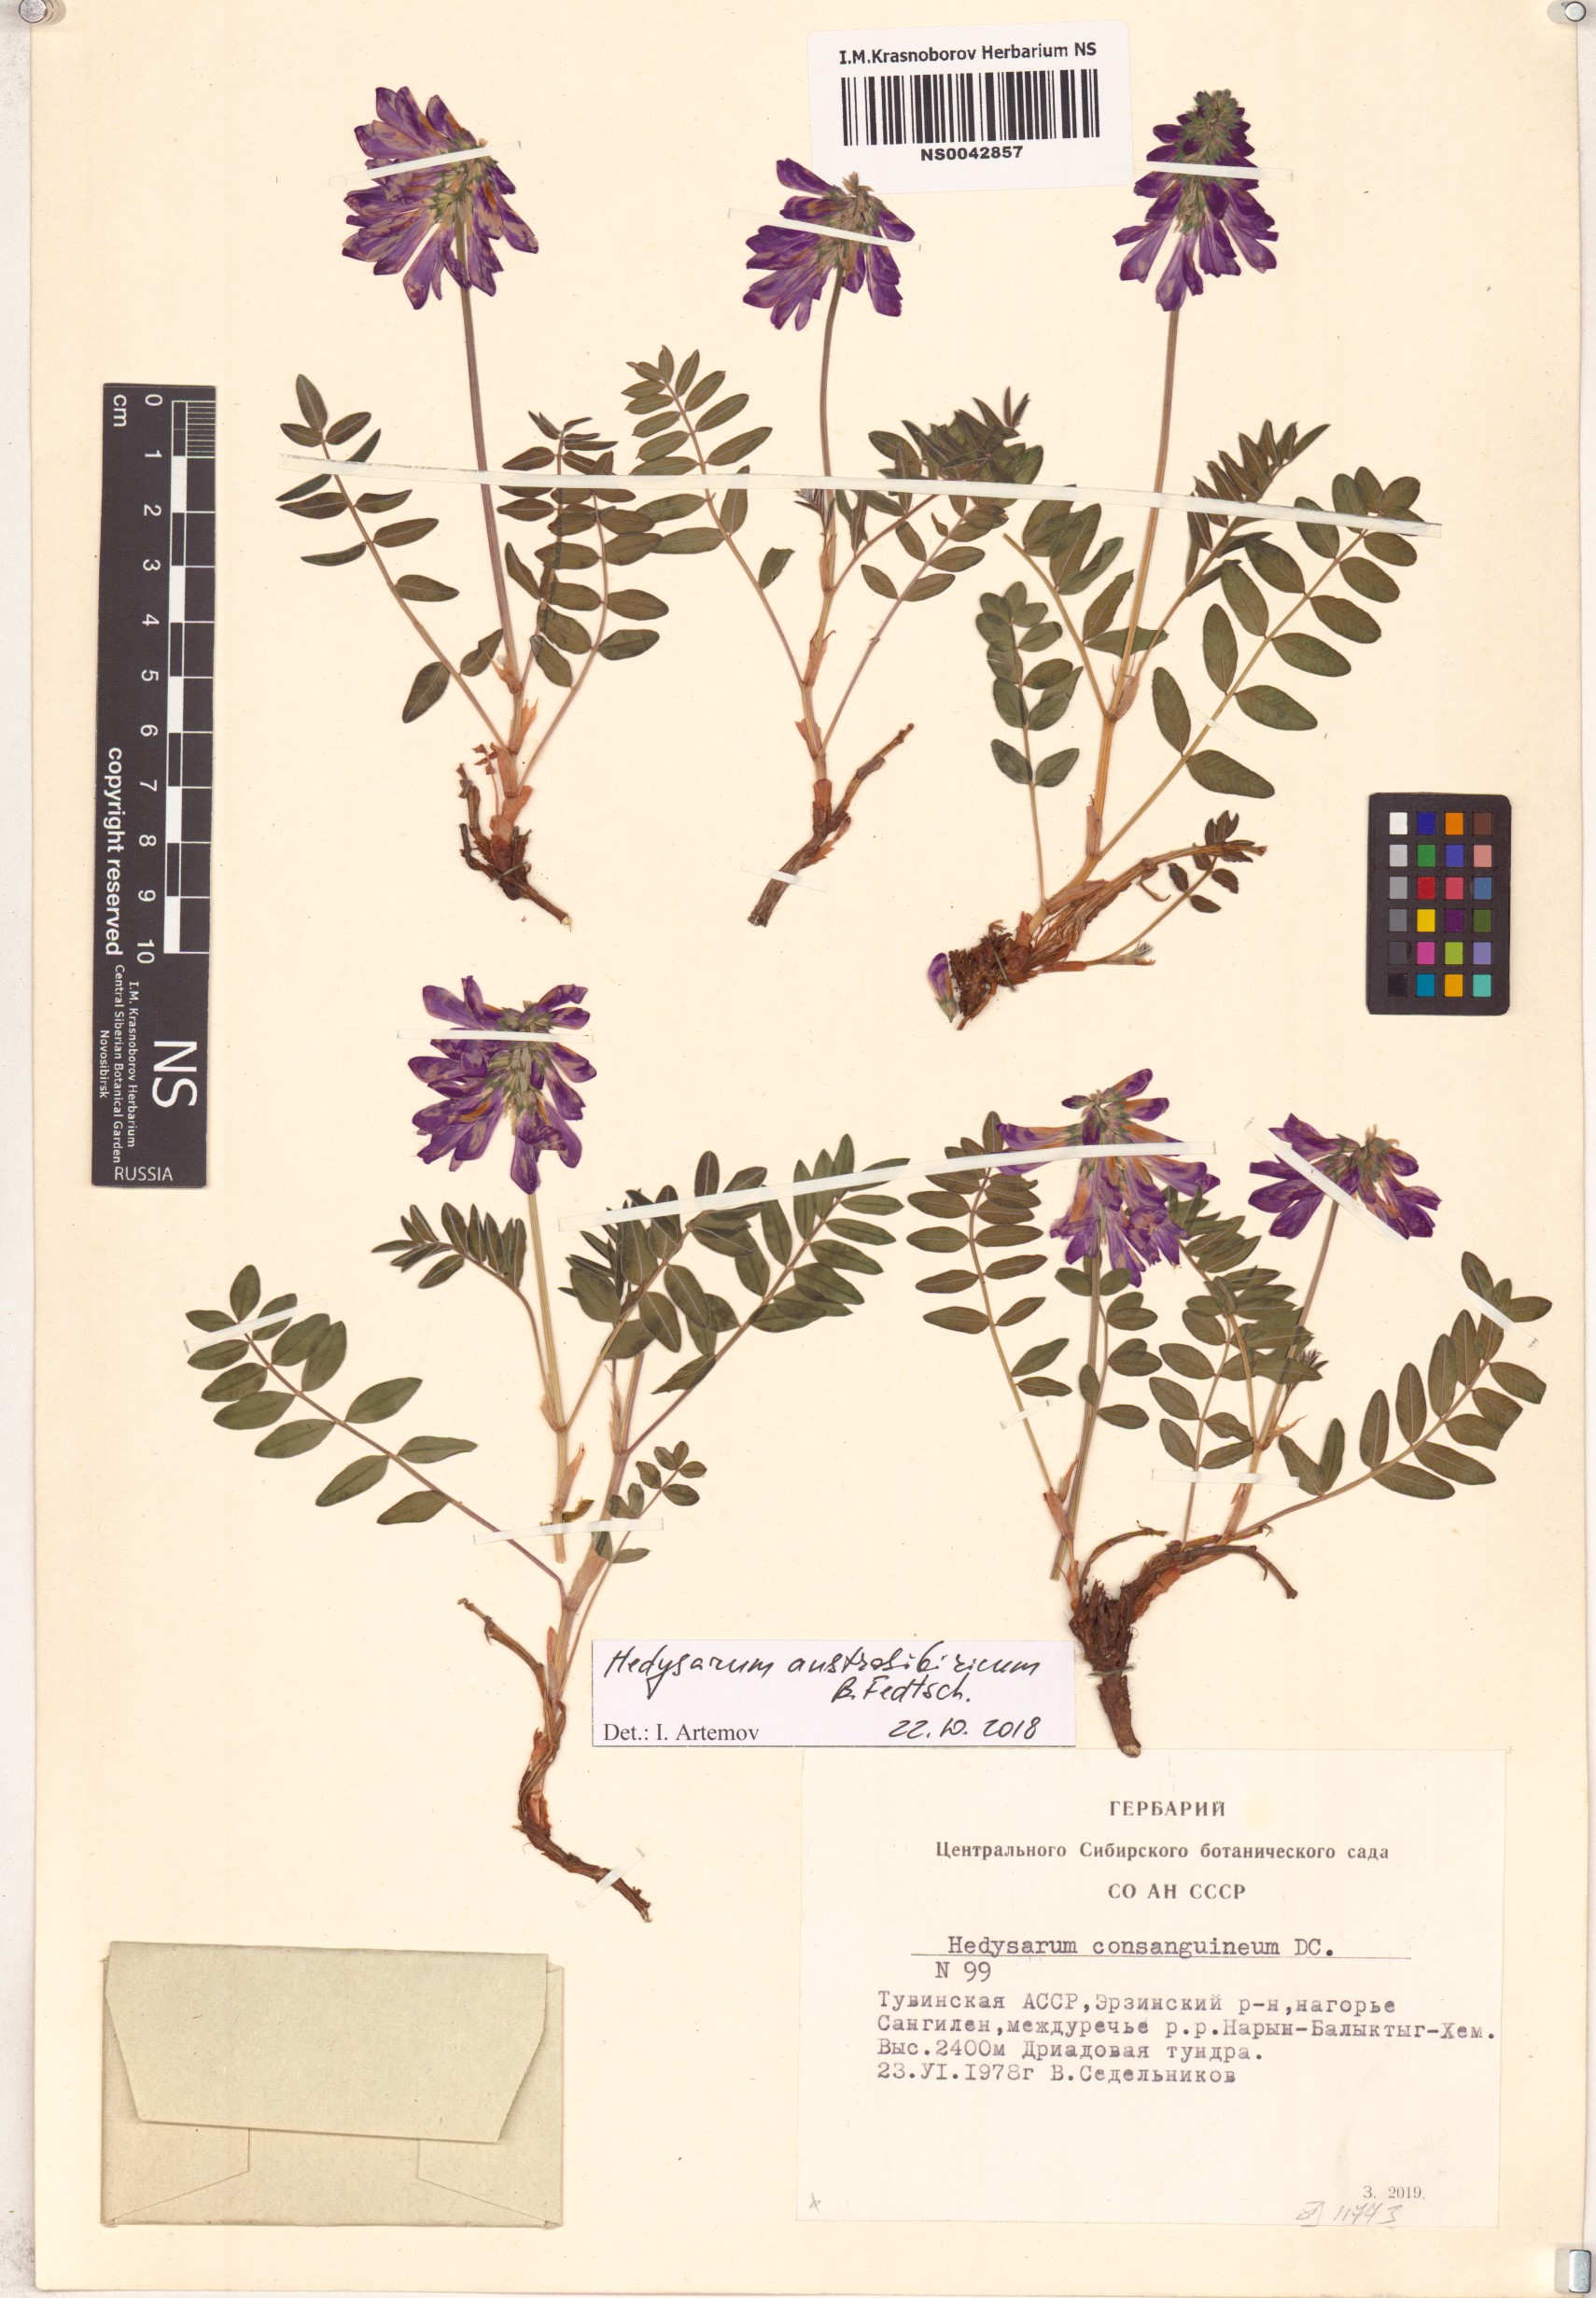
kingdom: Plantae
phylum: Tracheophyta
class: Magnoliopsida
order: Fabales
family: Fabaceae
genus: Hedysarum
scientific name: Hedysarum neglectum
